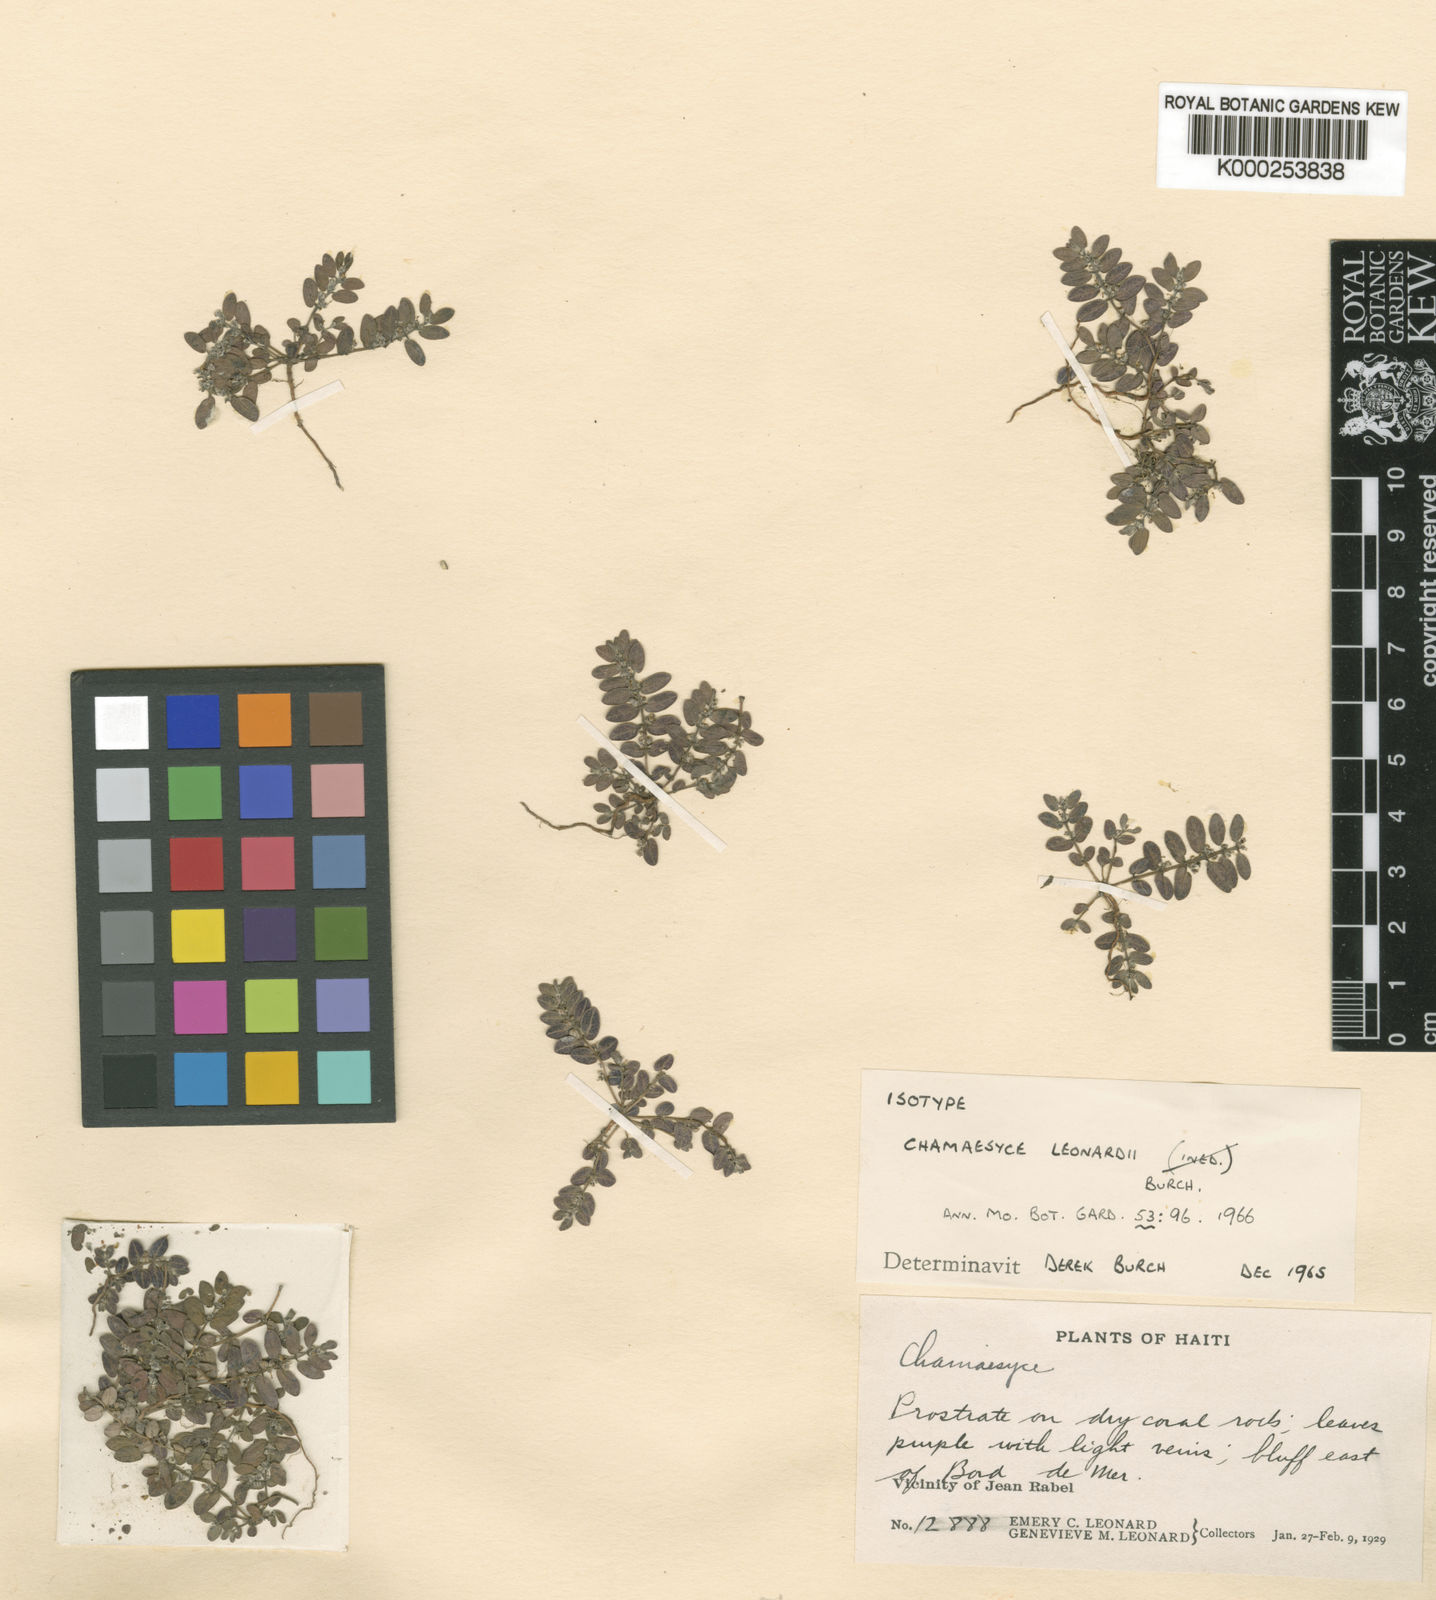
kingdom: Plantae
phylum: Tracheophyta
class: Magnoliopsida
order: Malpighiales
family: Euphorbiaceae
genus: Euphorbia
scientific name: Euphorbia leonardii
